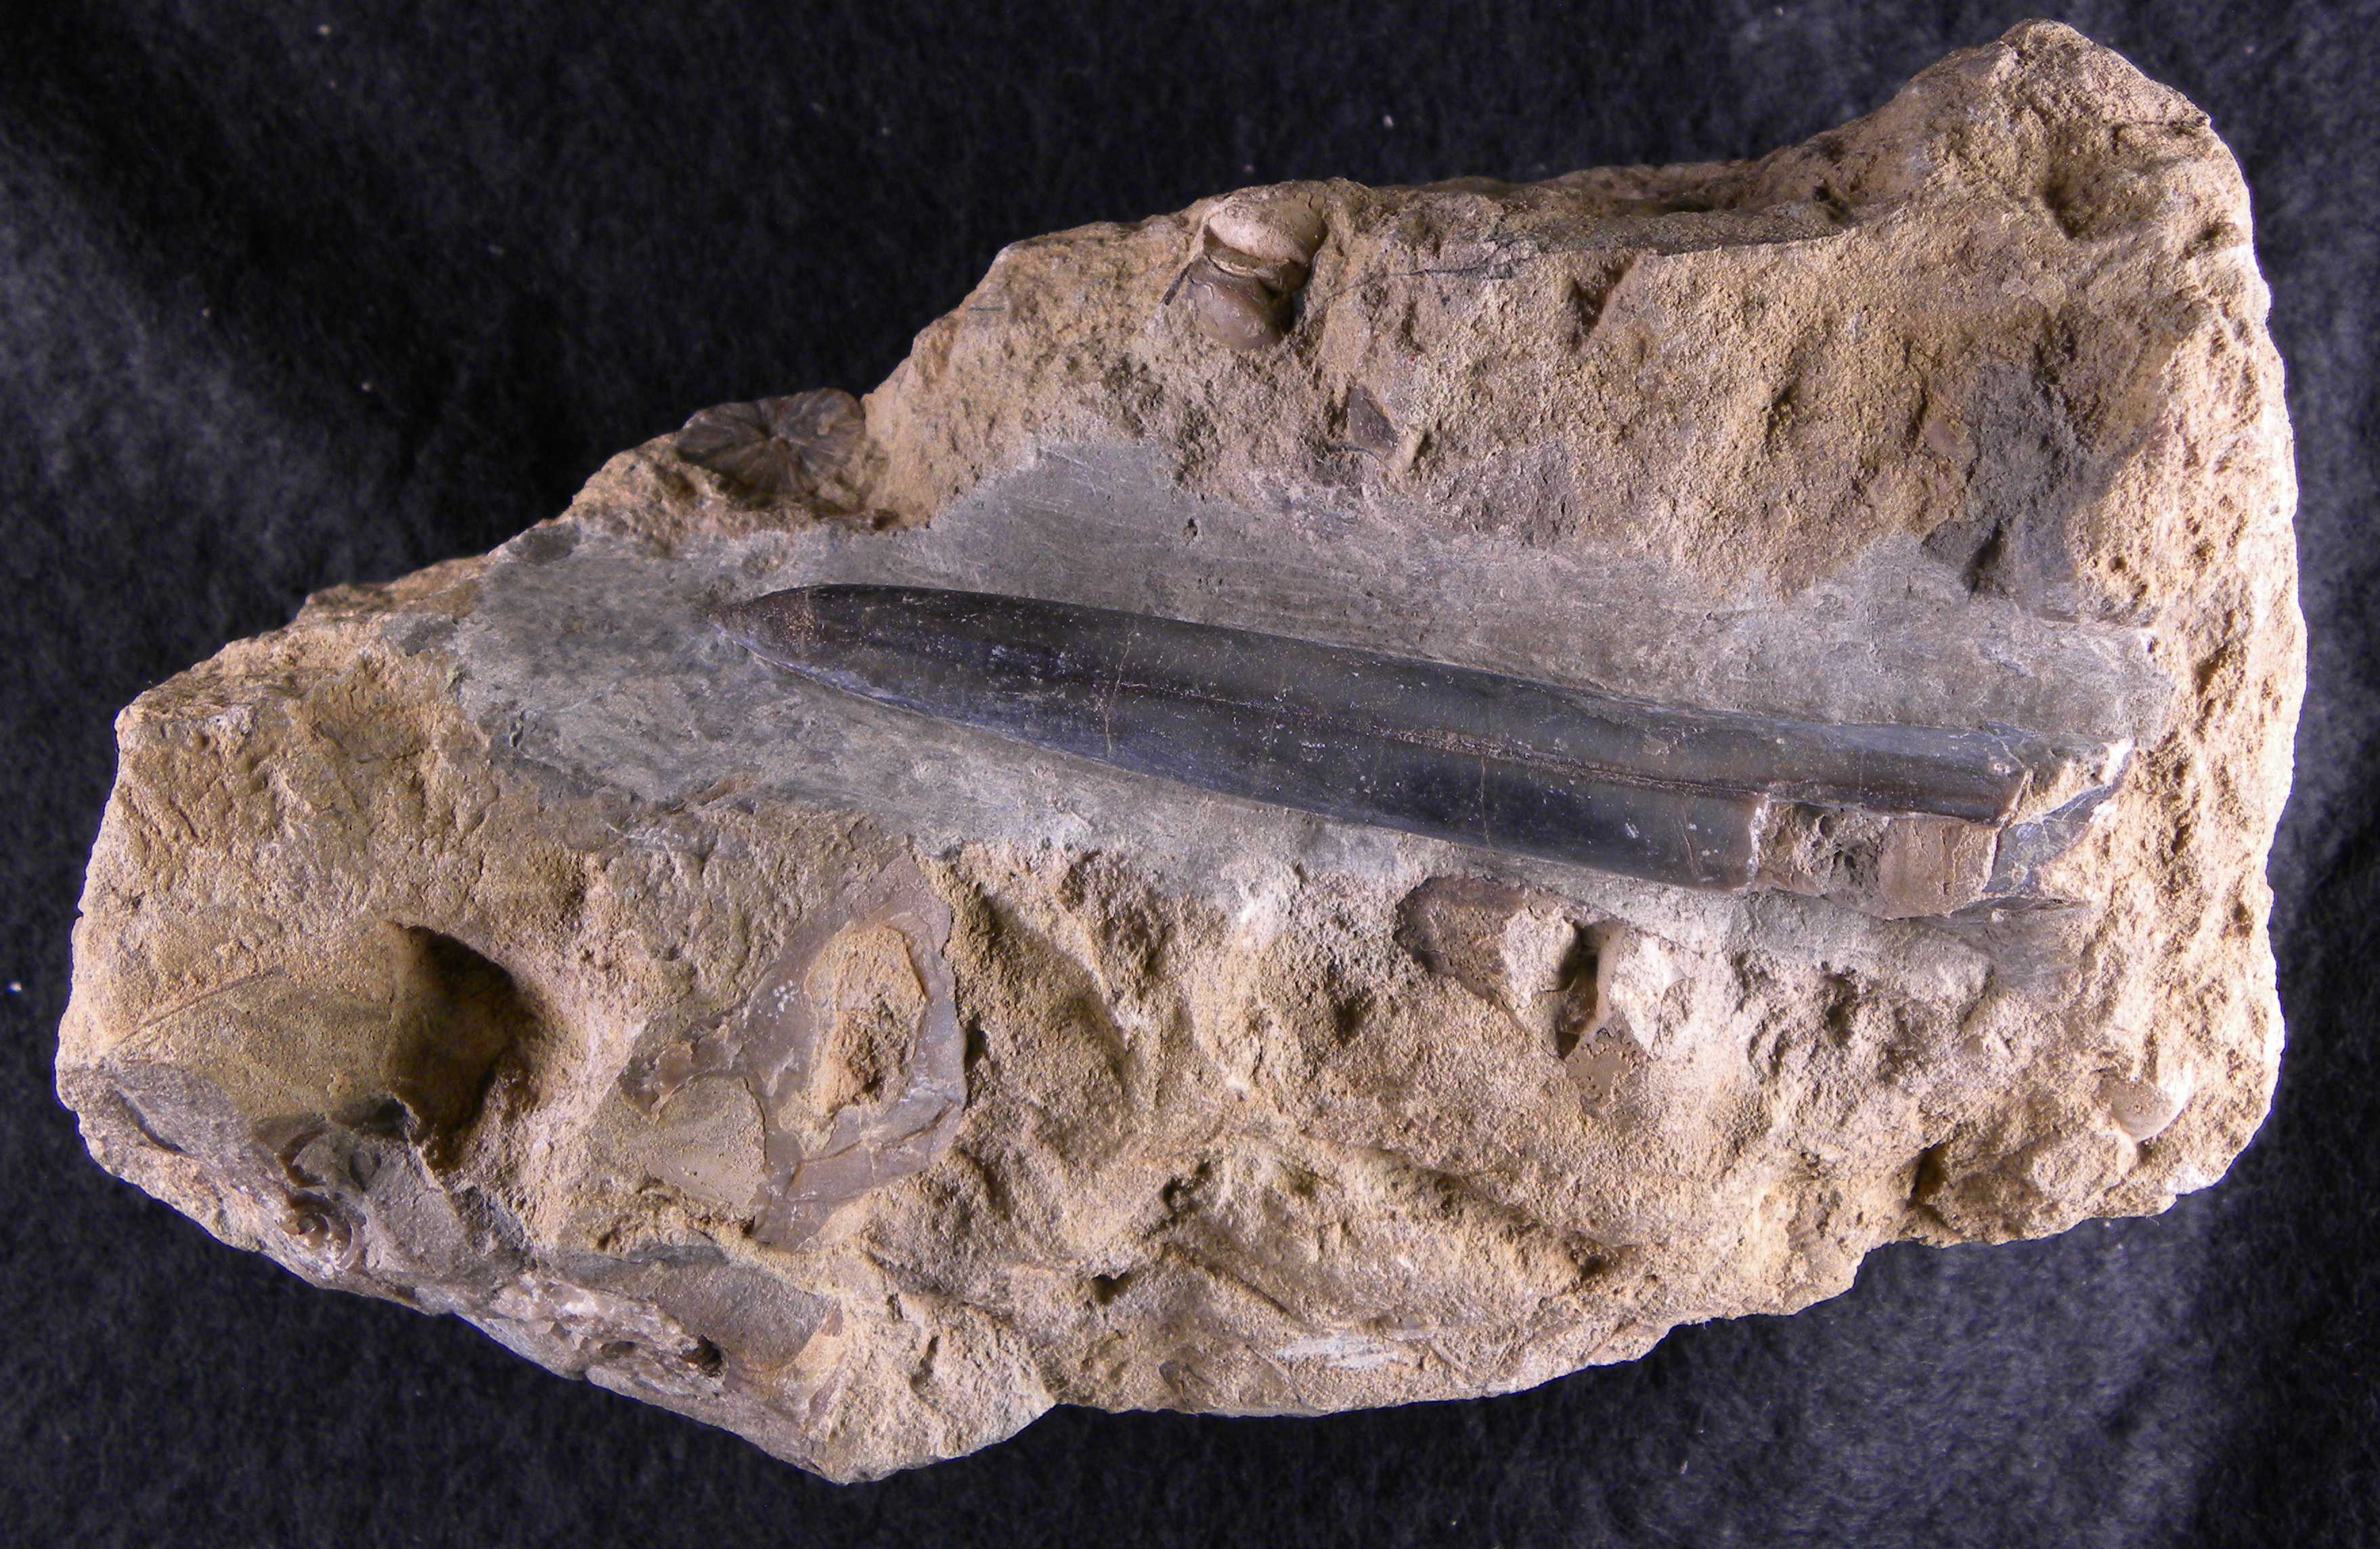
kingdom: Animalia
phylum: Mollusca
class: Cephalopoda
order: Belemnitida
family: Holcobelidae
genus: Calabribelus
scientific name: Calabribelus
